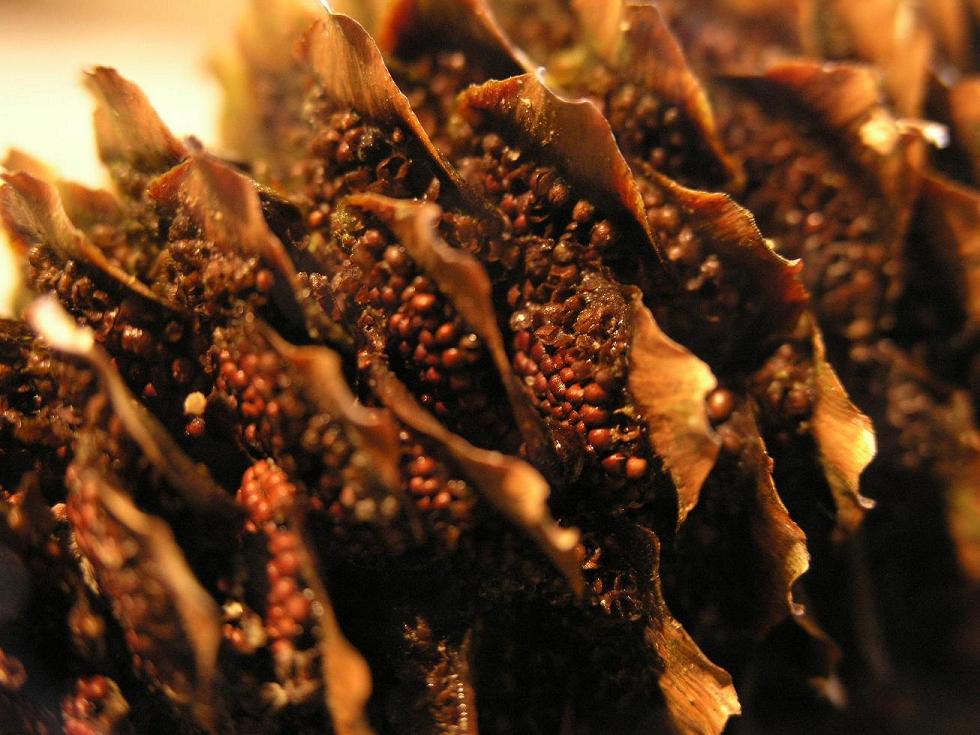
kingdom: Fungi
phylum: Basidiomycota
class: Pucciniomycetes
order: Pucciniales
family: Pucciniastraceae
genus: Thekopsora
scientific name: Thekopsora areolata
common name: grankogle-nålerust
